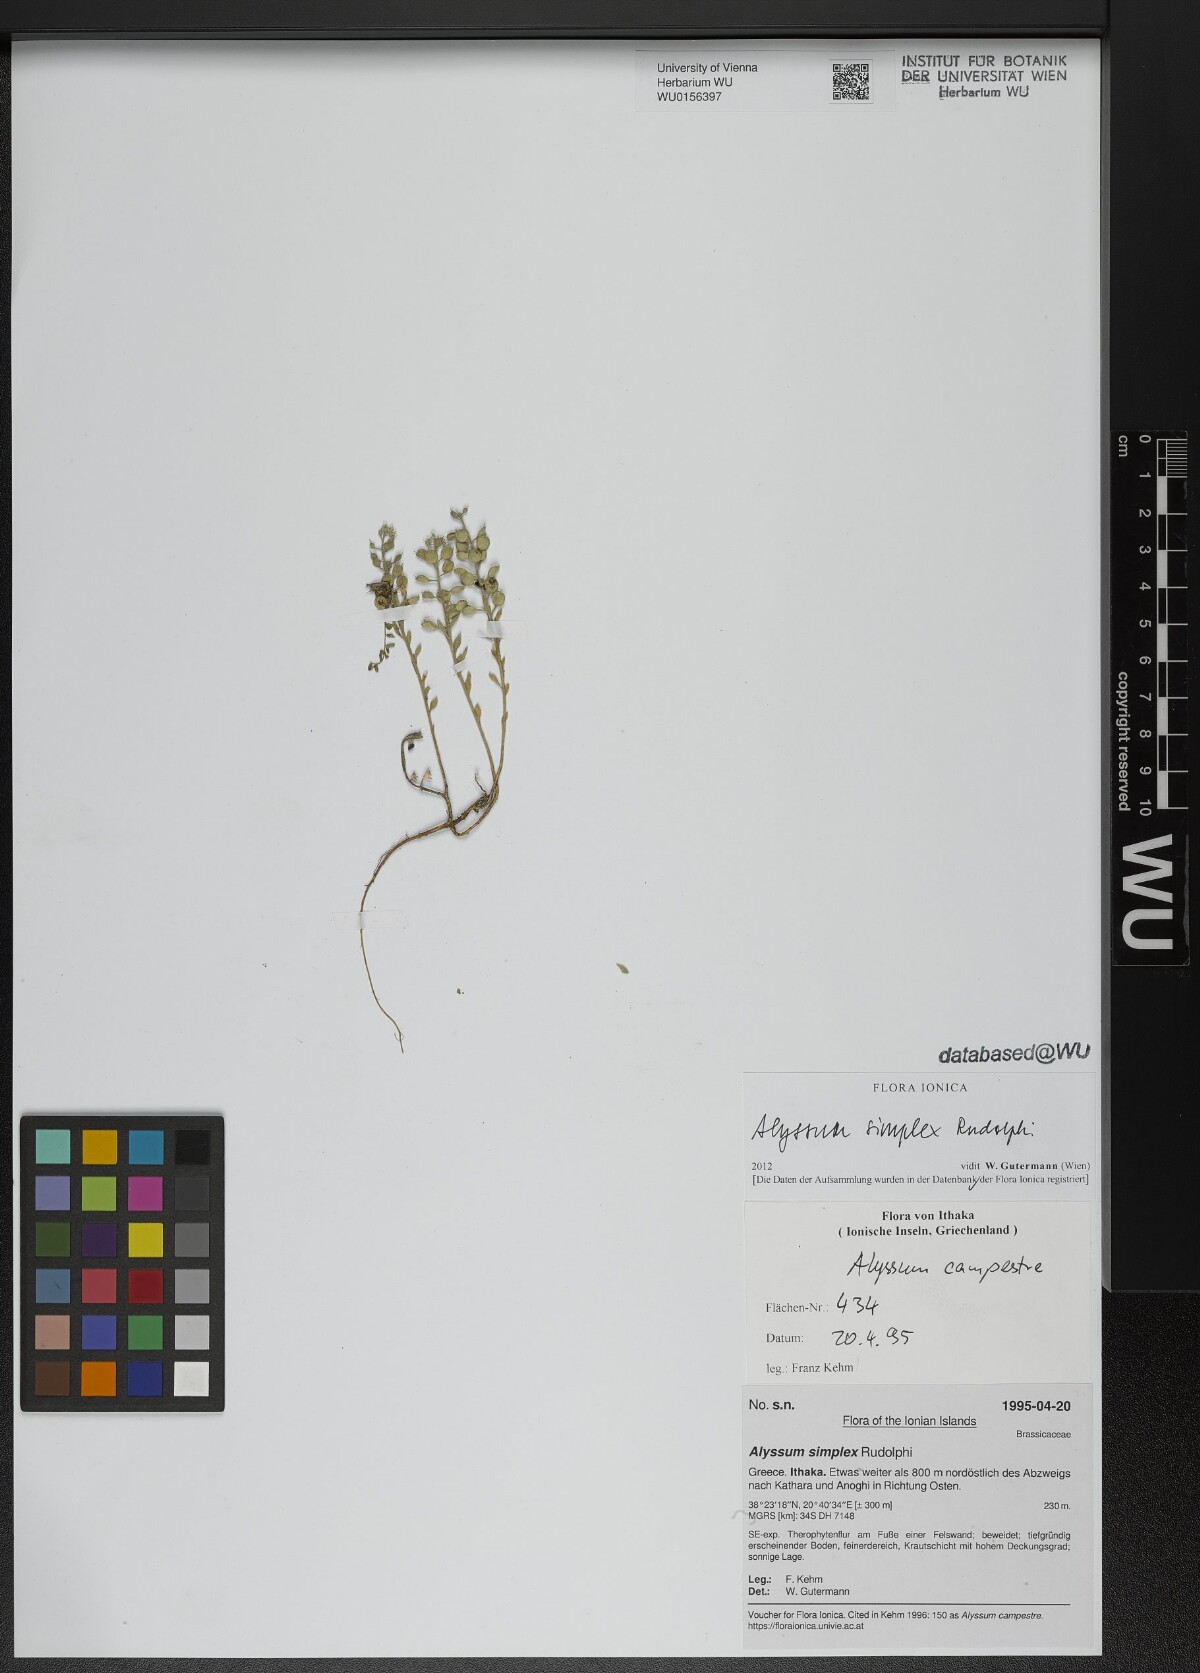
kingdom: Plantae
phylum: Tracheophyta
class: Magnoliopsida
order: Brassicales
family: Brassicaceae
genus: Alyssum
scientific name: Alyssum simplex
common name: Alyssum
